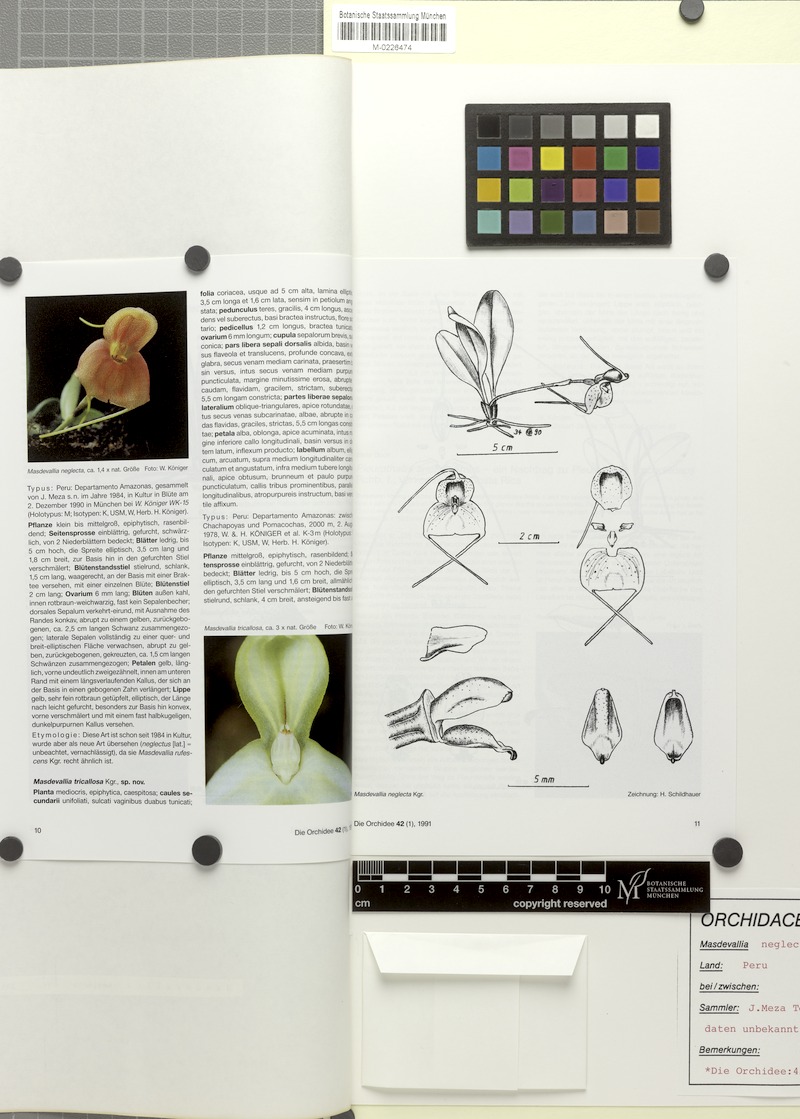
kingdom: Plantae
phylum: Tracheophyta
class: Liliopsida
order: Asparagales
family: Orchidaceae
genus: Masdevallia
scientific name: Masdevallia rufescens
